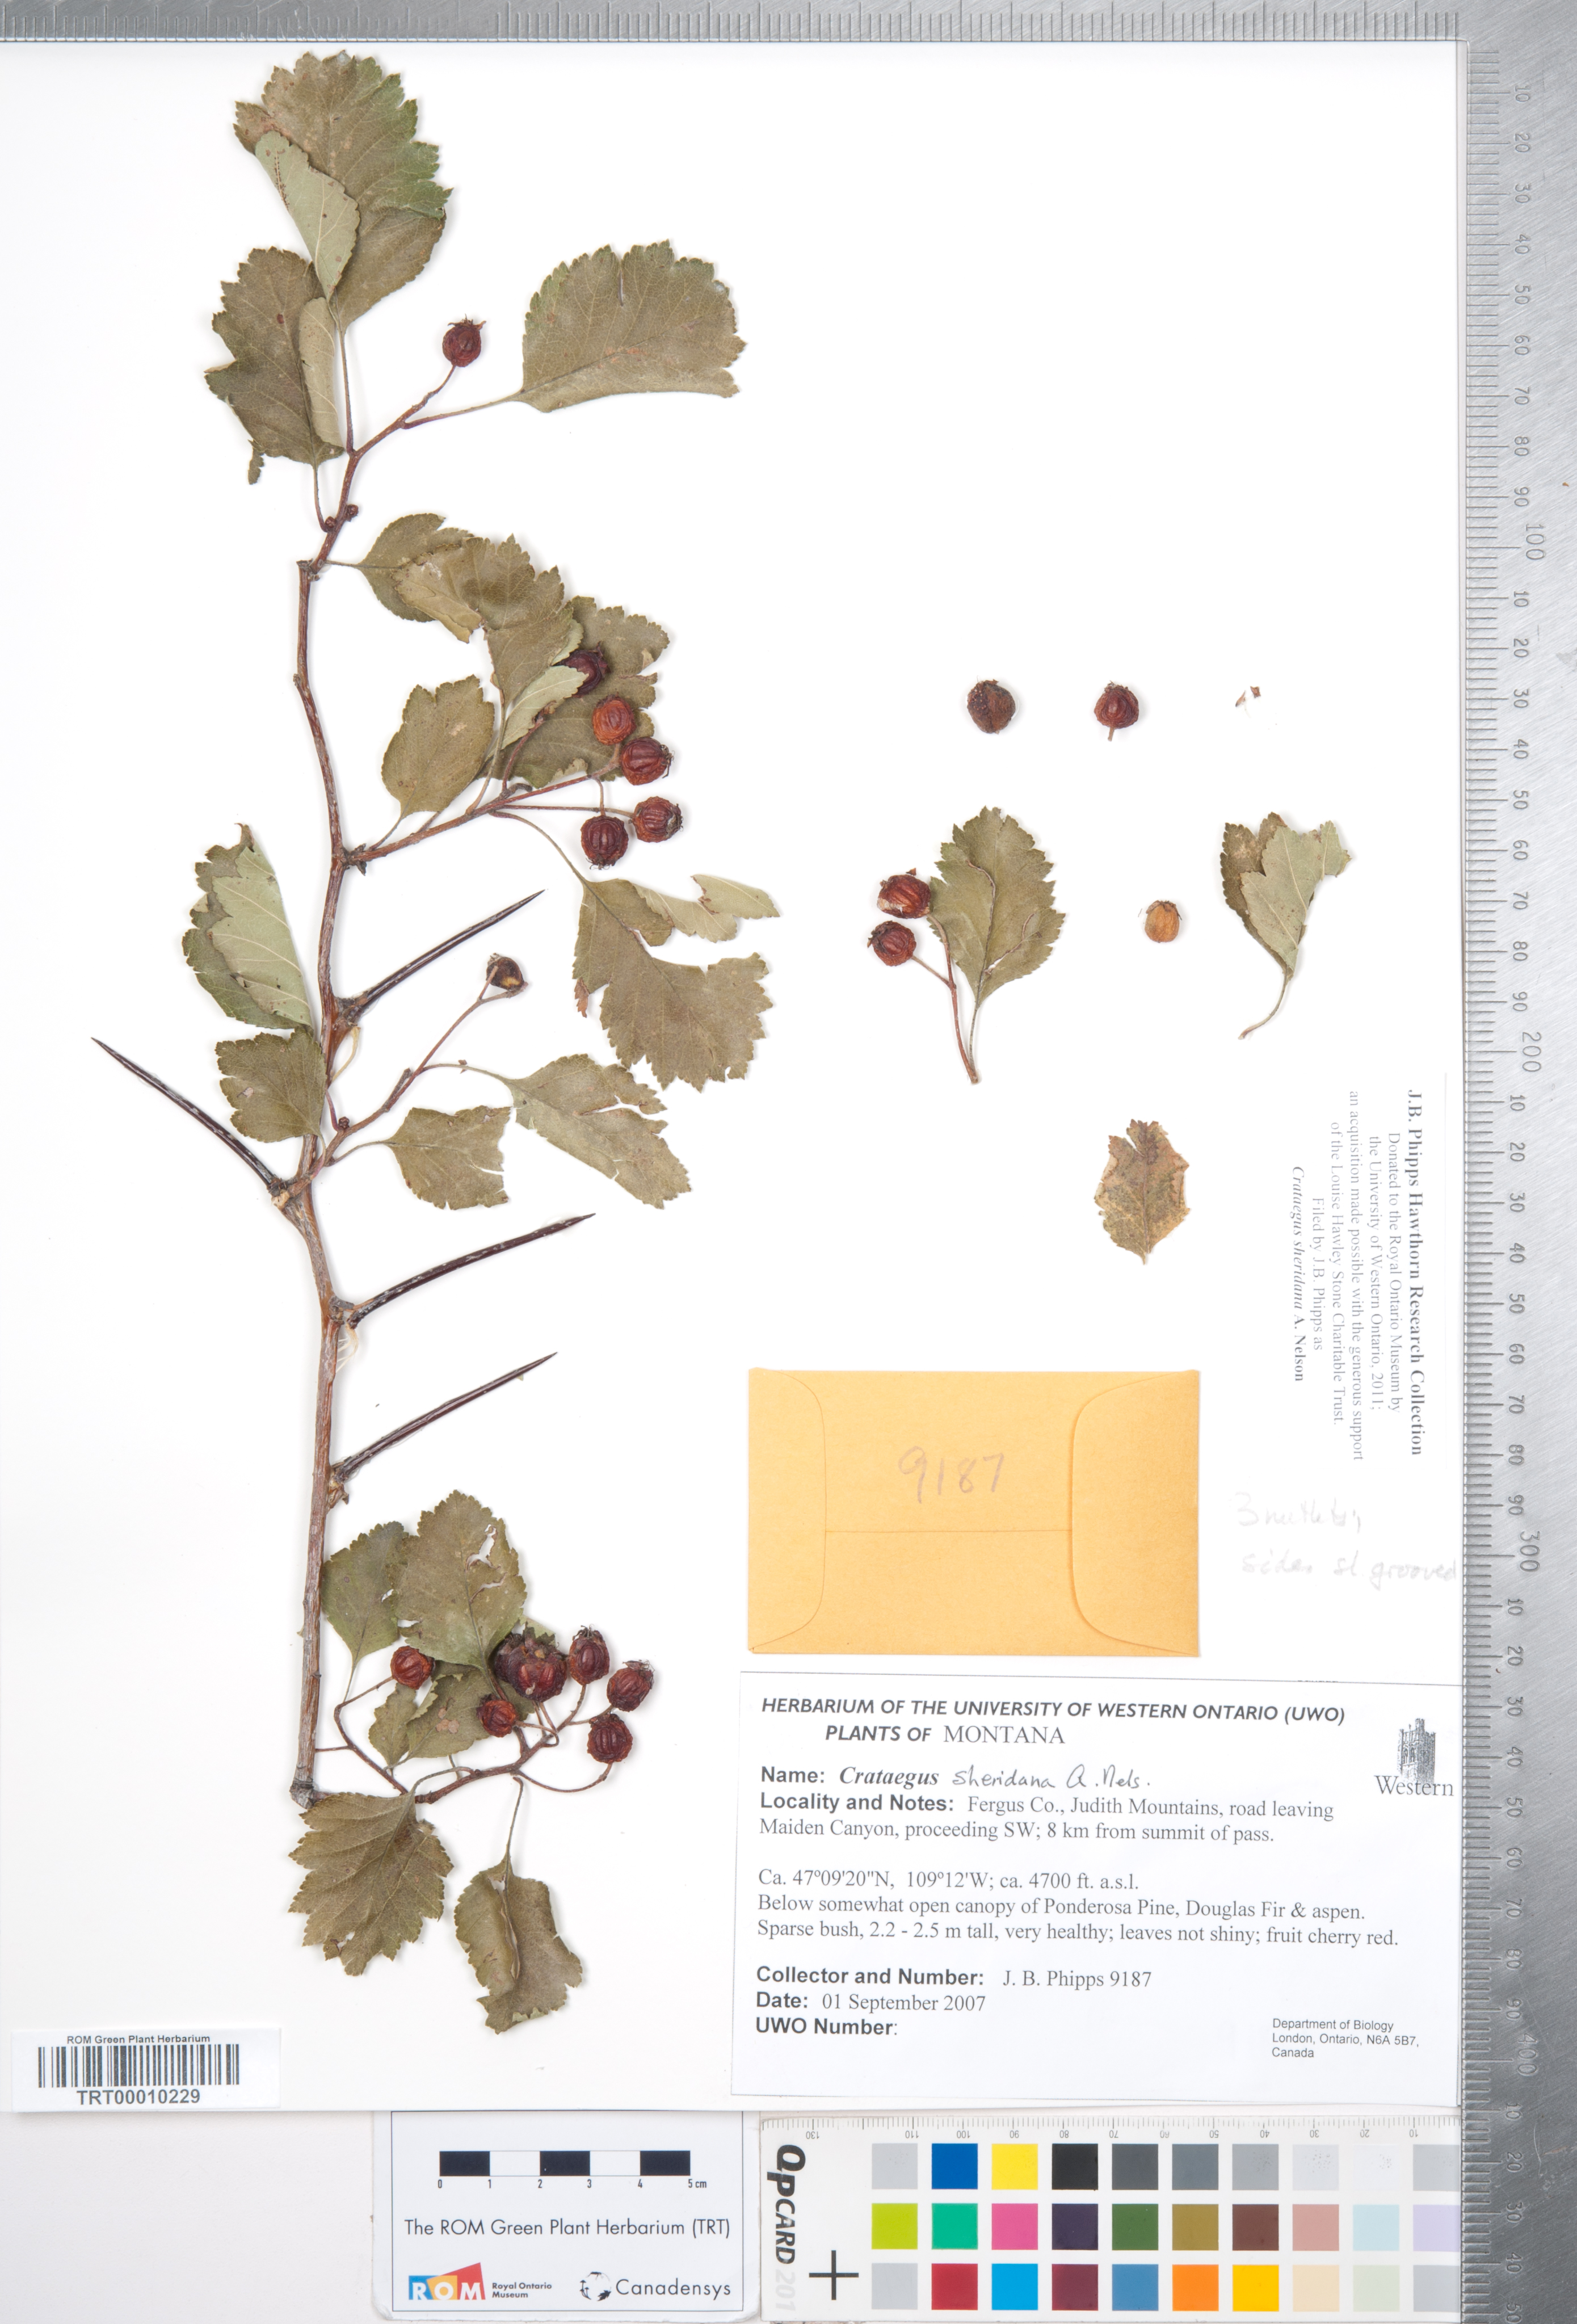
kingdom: Plantae
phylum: Tracheophyta
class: Magnoliopsida
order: Rosales
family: Rosaceae
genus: Crataegus
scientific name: Crataegus chrysocarpa
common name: Fire-berry hawthorn
